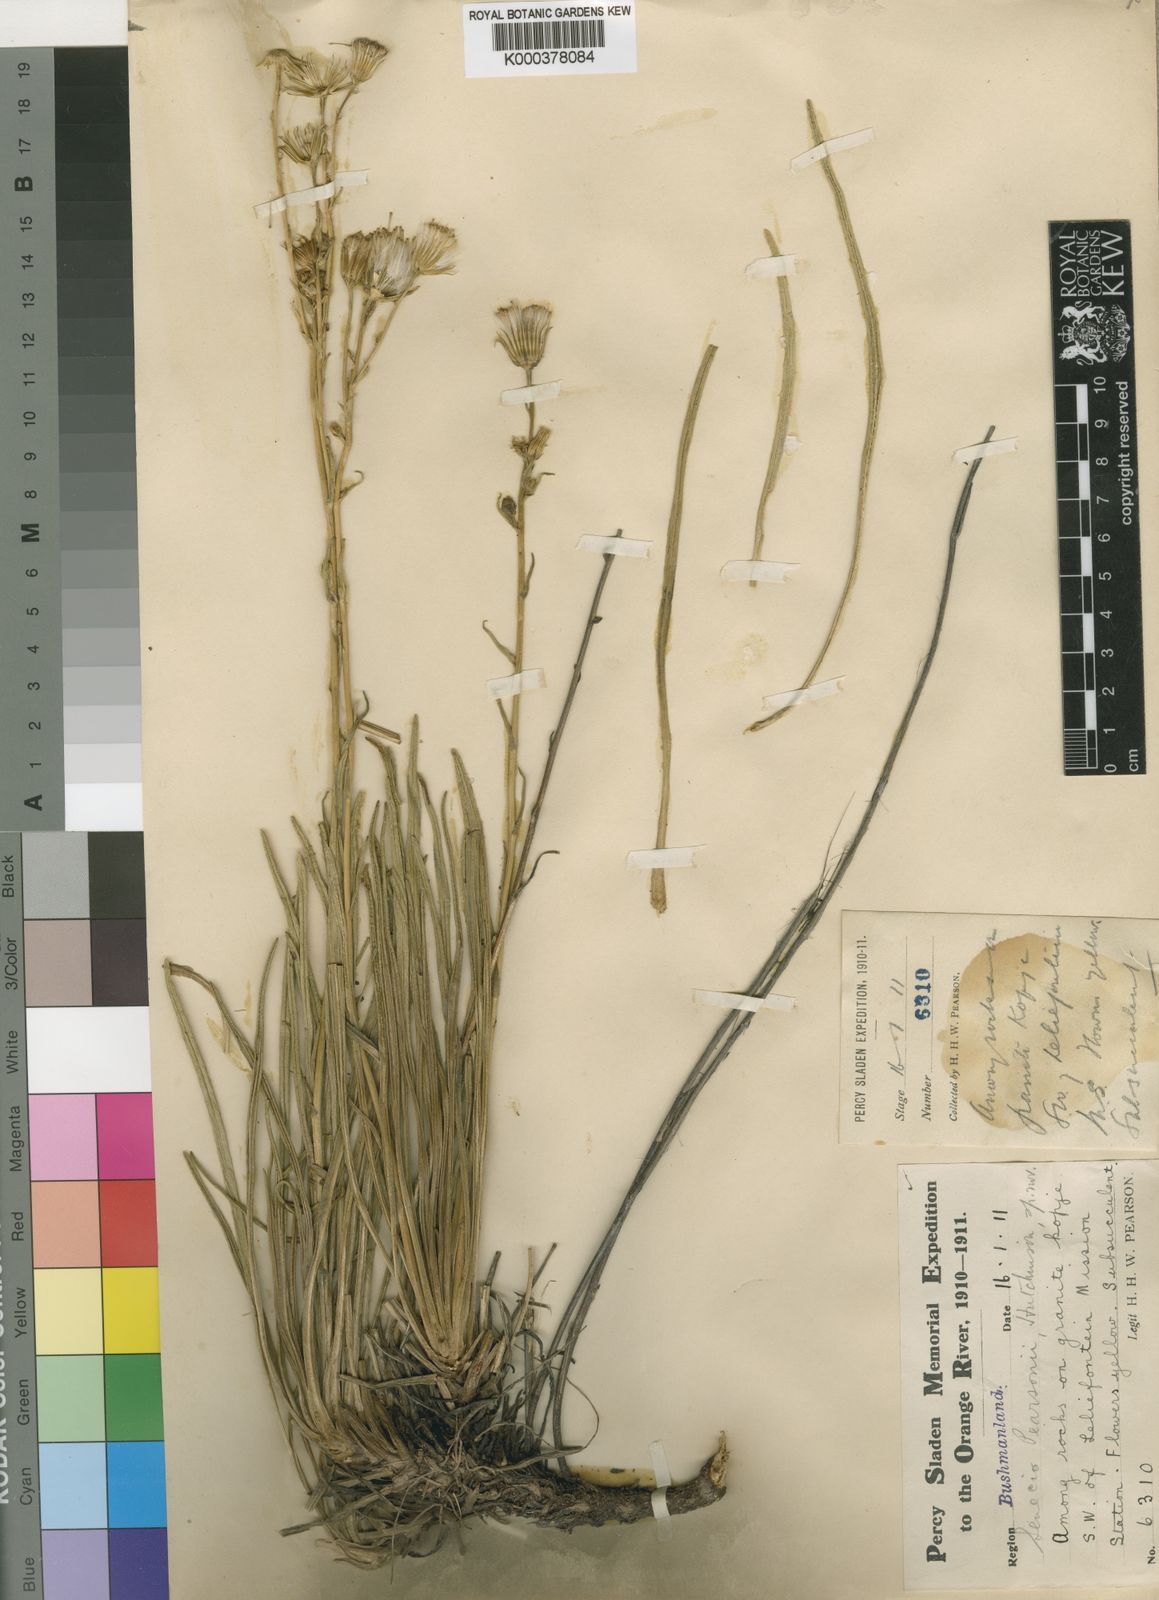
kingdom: Plantae
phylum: Tracheophyta
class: Magnoliopsida
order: Asterales
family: Asteraceae
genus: Senecio
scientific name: Senecio pearsonii
